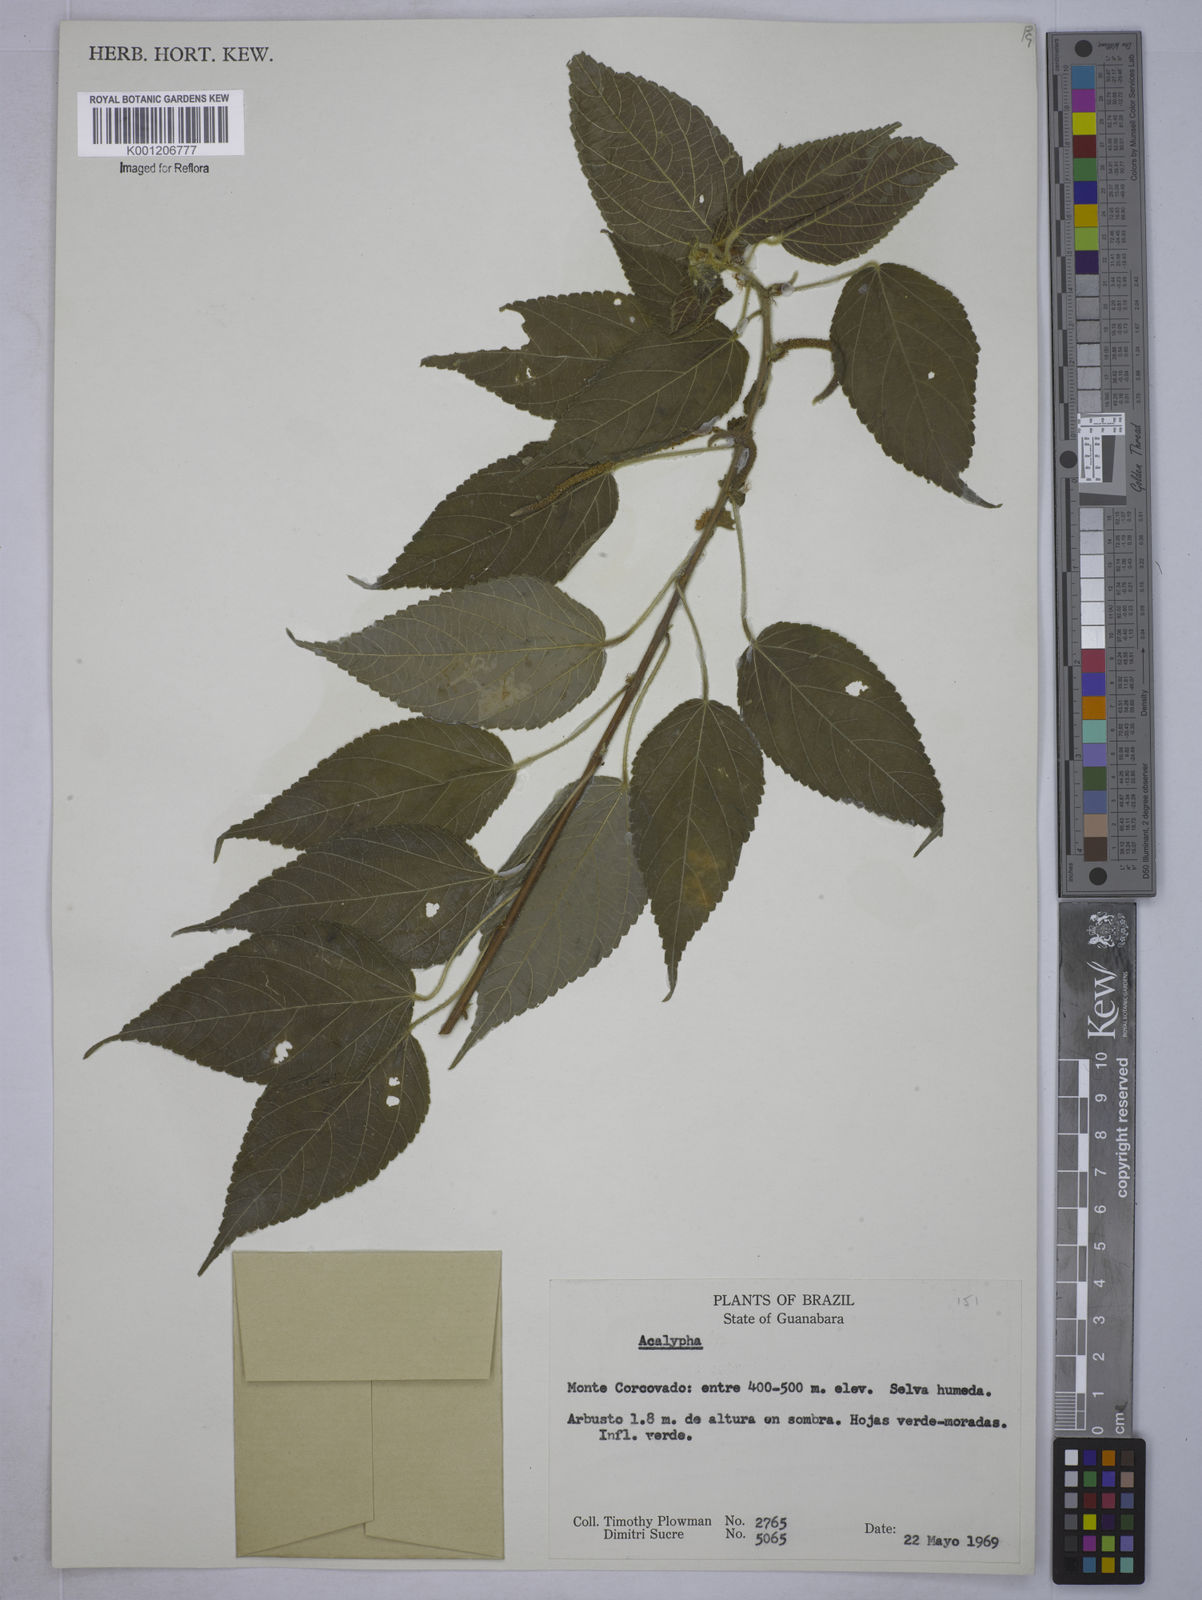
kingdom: Plantae
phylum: Tracheophyta
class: Magnoliopsida
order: Malpighiales
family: Euphorbiaceae
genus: Acalypha
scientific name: Acalypha
